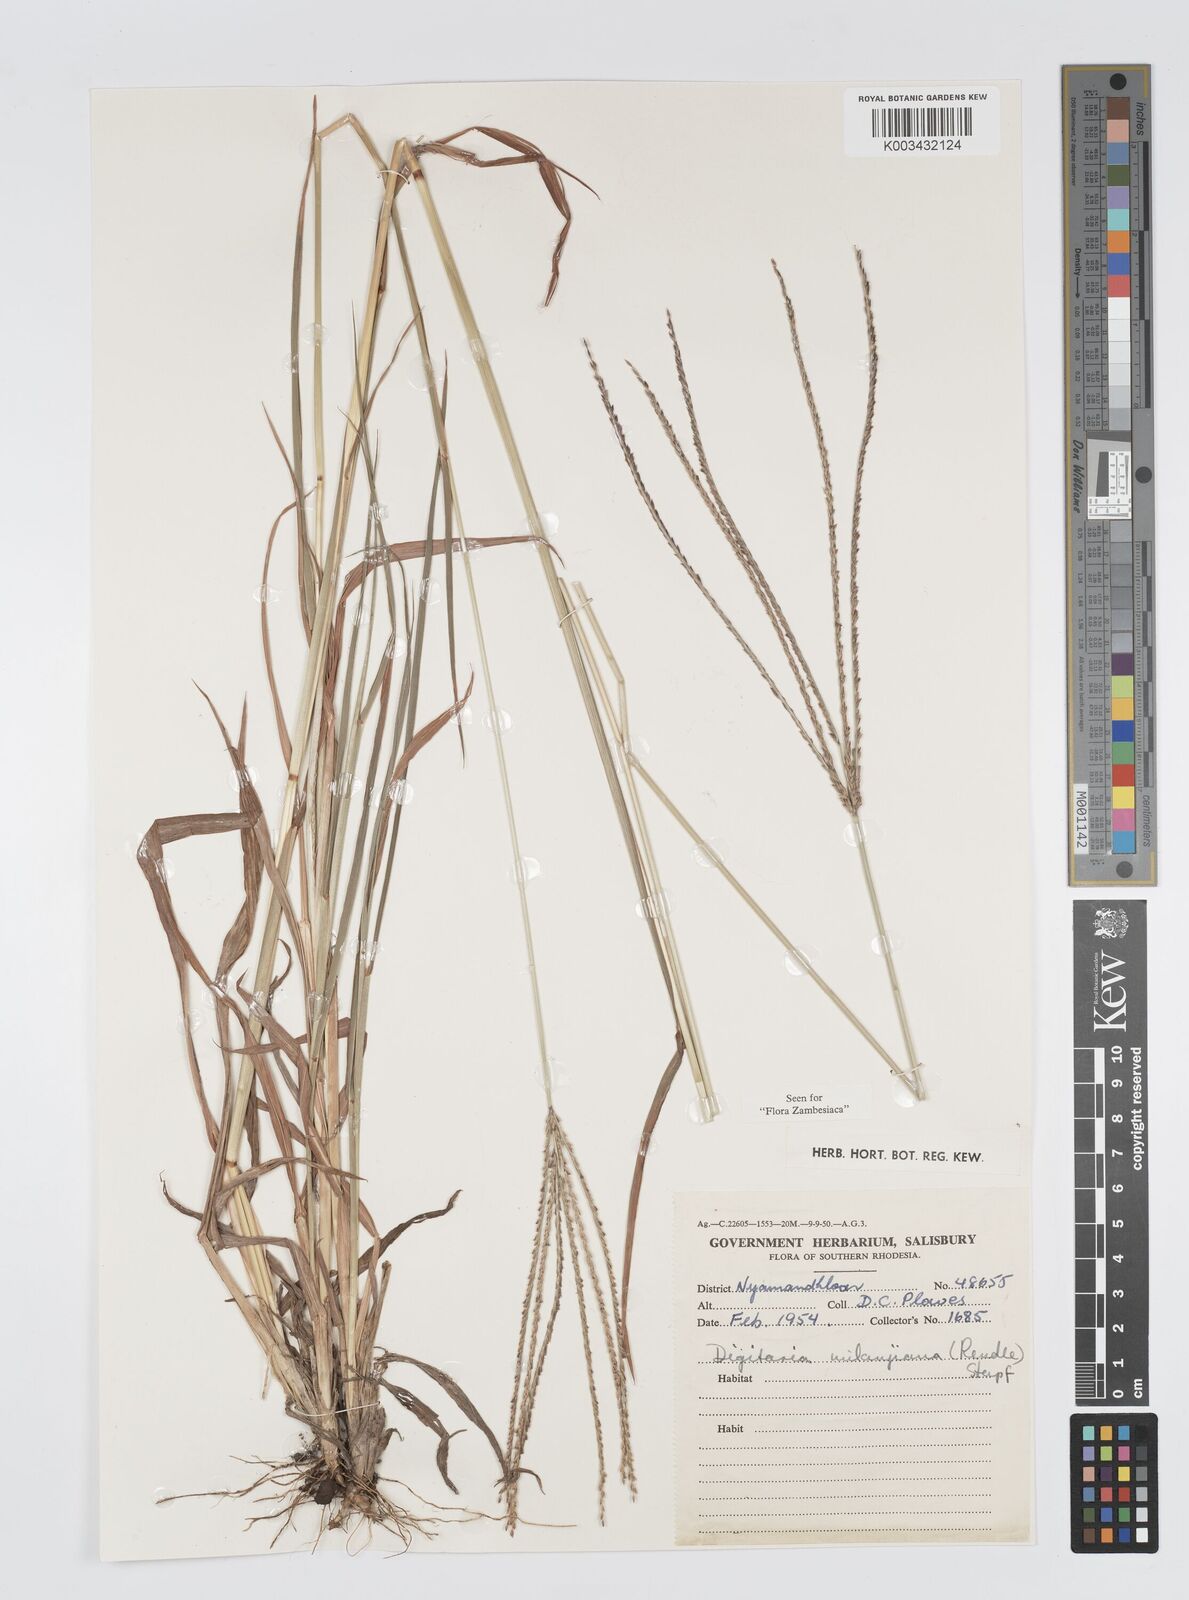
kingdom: Plantae
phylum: Tracheophyta
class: Liliopsida
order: Poales
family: Poaceae
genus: Digitaria
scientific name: Digitaria milanjiana
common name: Madagascar crabgrass
